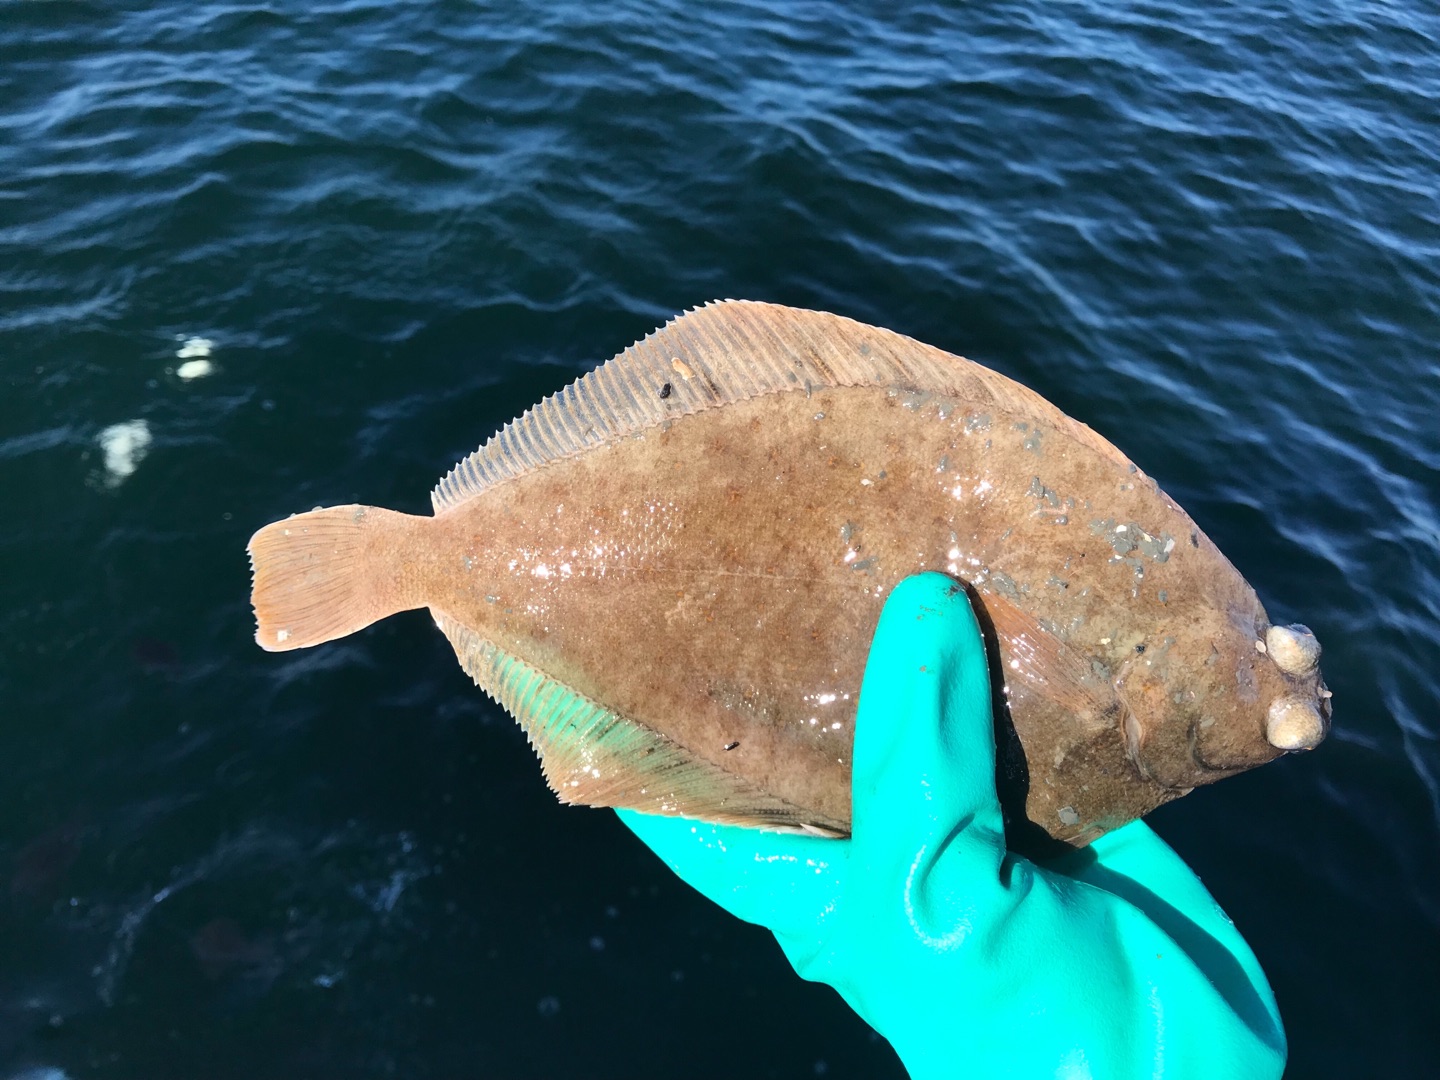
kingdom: Animalia
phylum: Chordata
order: Pleuronectiformes
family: Pleuronectidae
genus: Limanda
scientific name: Limanda limanda
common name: Ising
